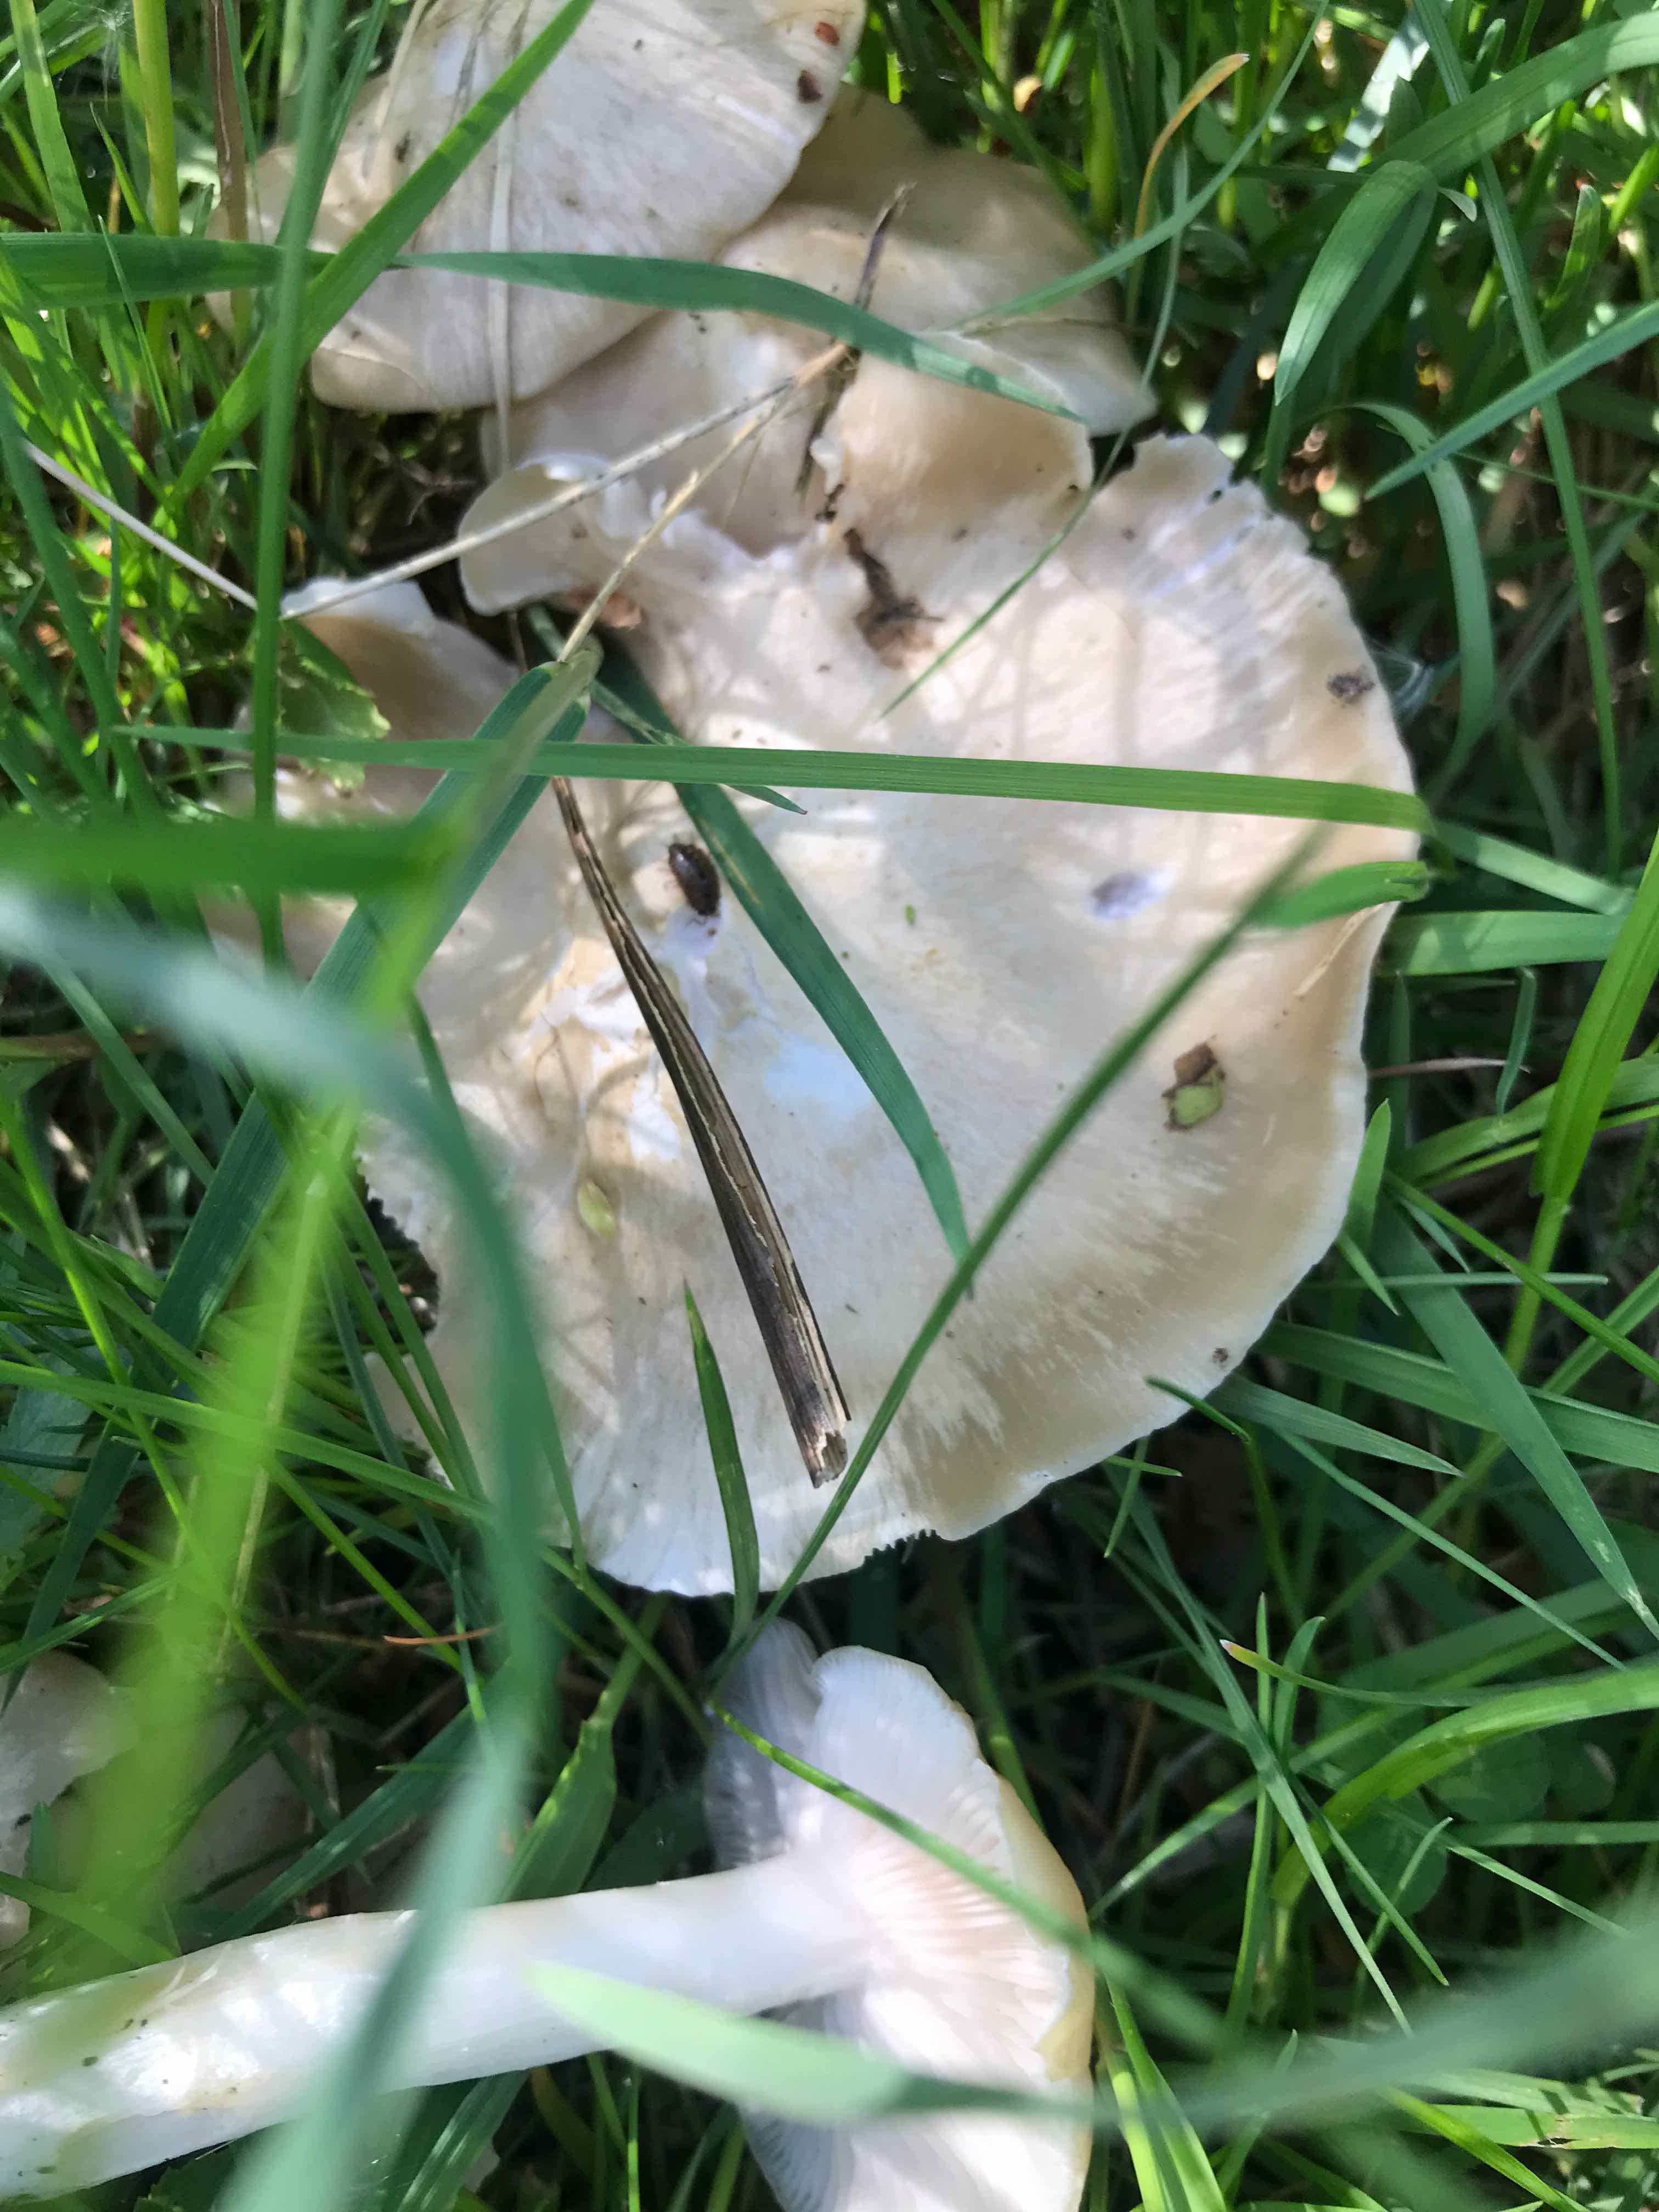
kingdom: Fungi
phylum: Basidiomycota
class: Agaricomycetes
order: Agaricales
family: Entolomataceae
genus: Entoloma
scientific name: Entoloma
